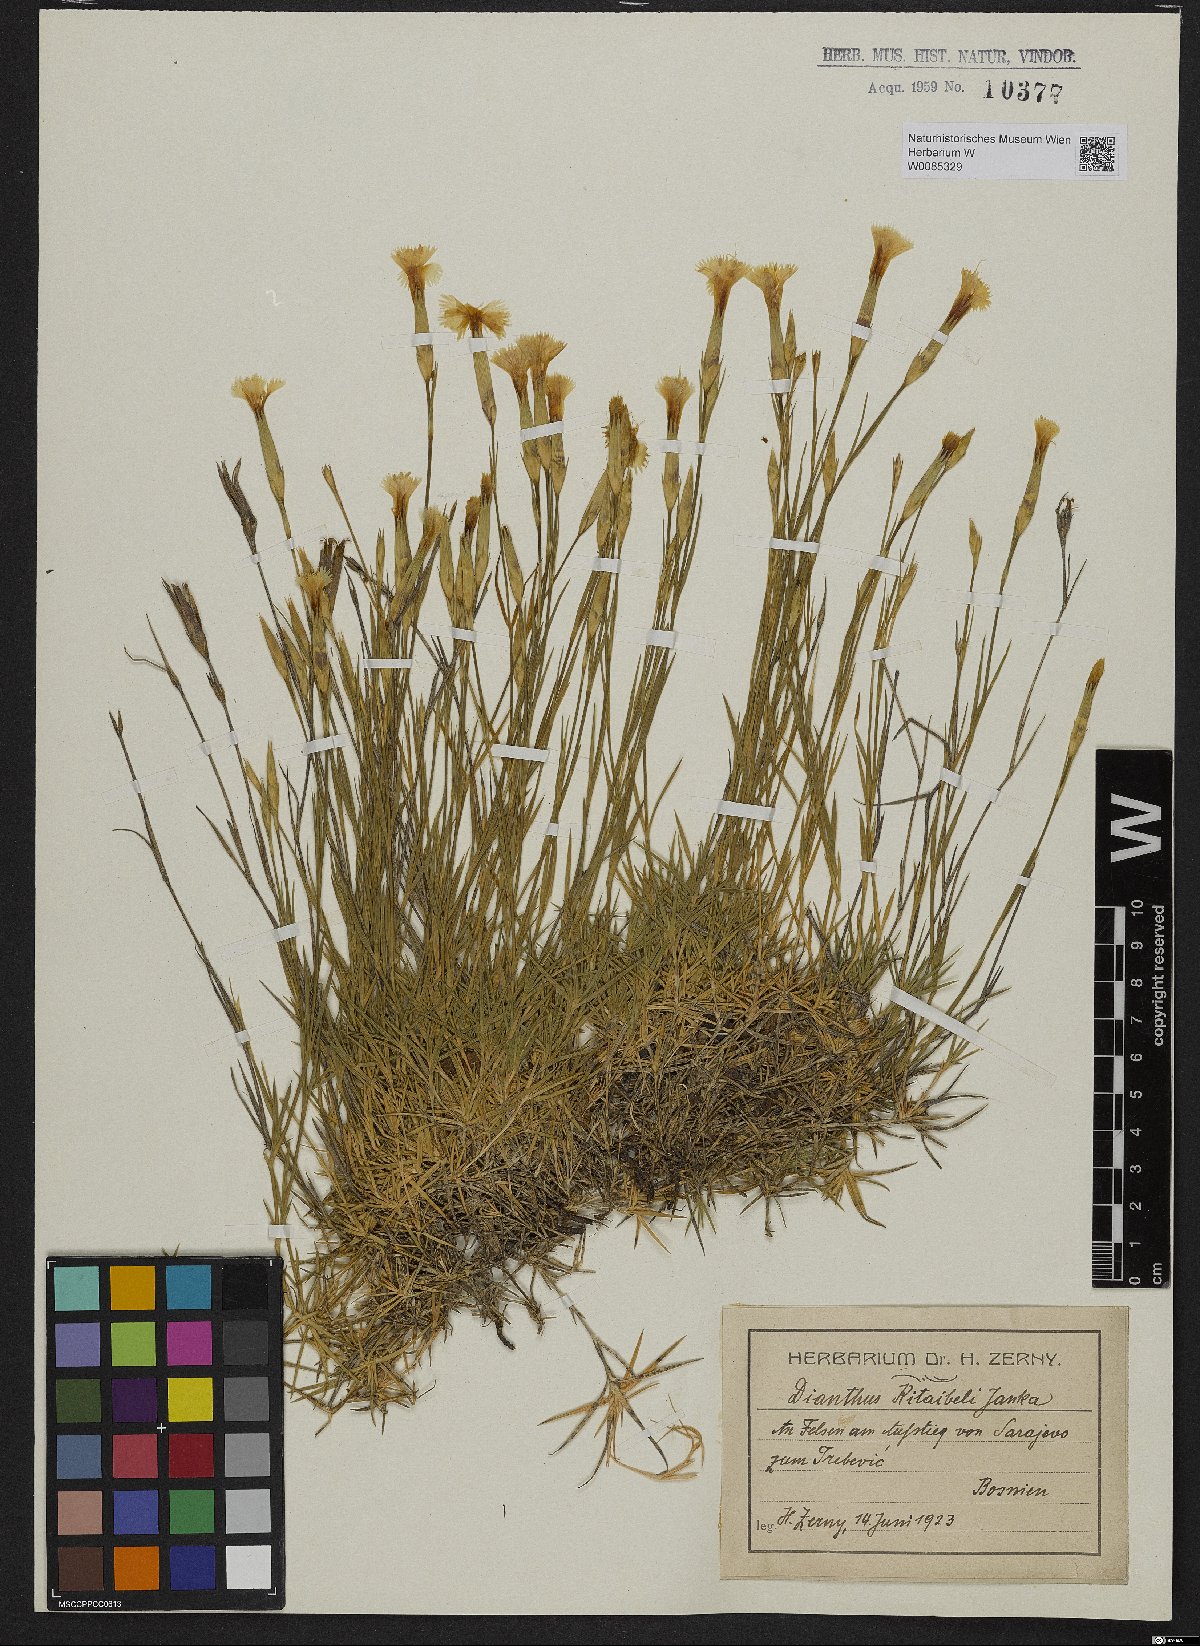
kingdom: Plantae
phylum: Tracheophyta
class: Magnoliopsida
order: Caryophyllales
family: Caryophyllaceae
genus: Dianthus
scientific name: Dianthus petraeus
